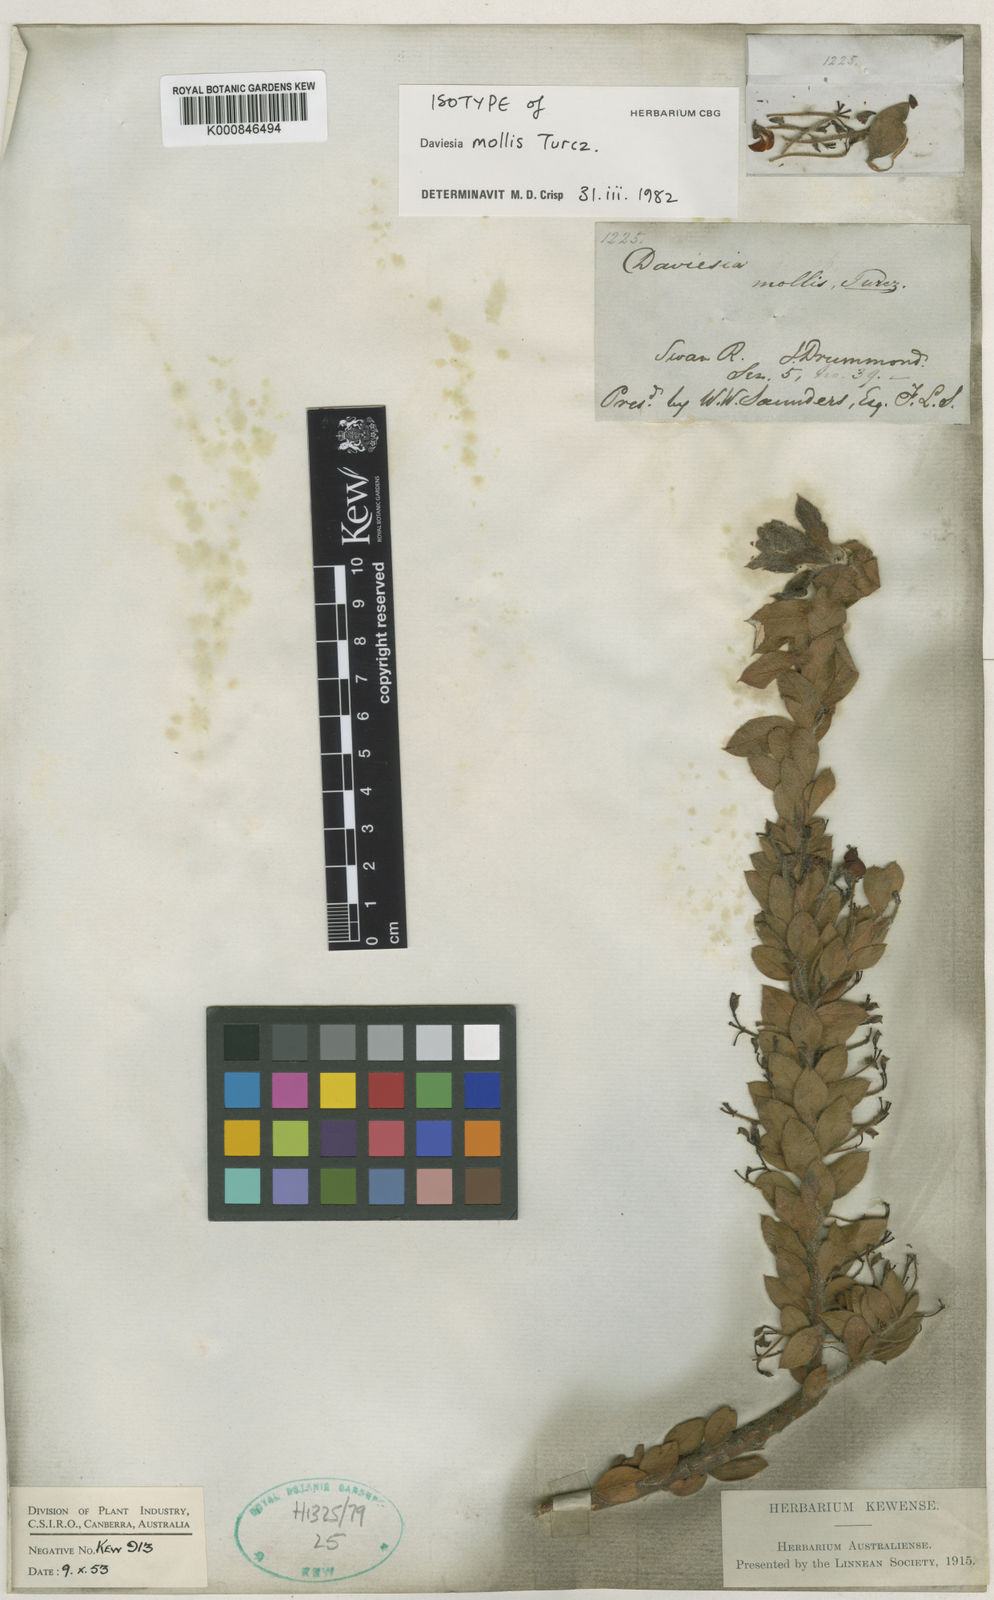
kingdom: Plantae
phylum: Tracheophyta
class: Magnoliopsida
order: Fabales
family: Fabaceae
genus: Daviesia
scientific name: Daviesia mollis
